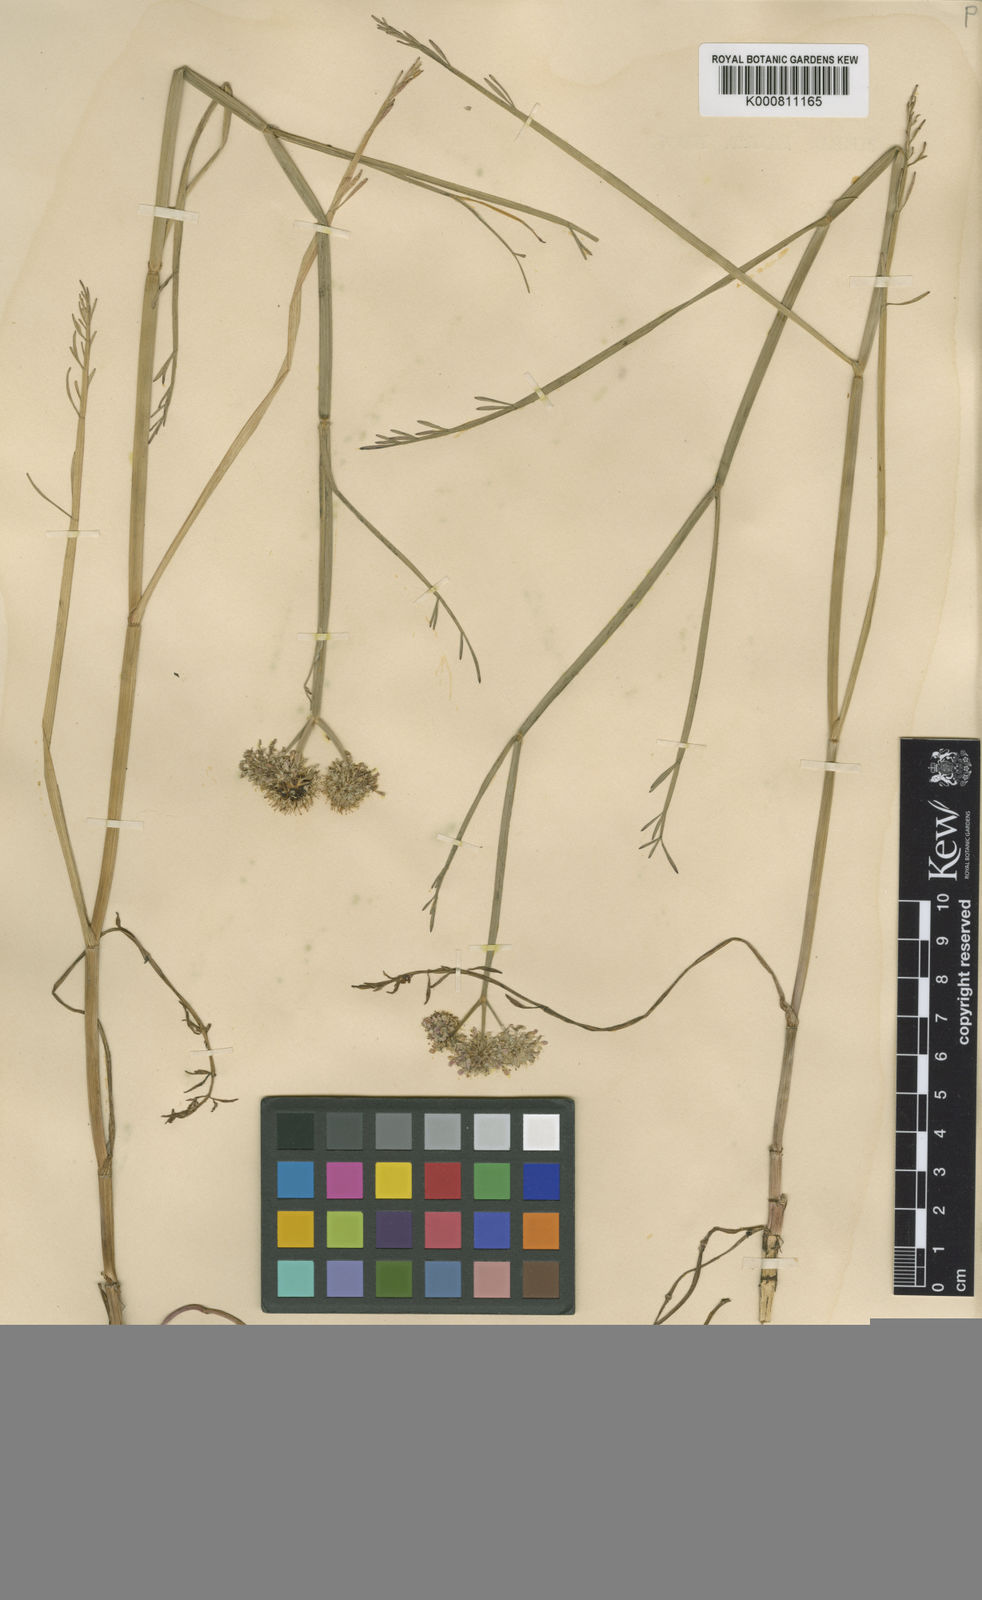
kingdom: Plantae
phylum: Tracheophyta
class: Magnoliopsida
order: Apiales
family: Apiaceae
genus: Oenanthe
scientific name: Oenanthe fistulosa
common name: Tubular water-dropwort
